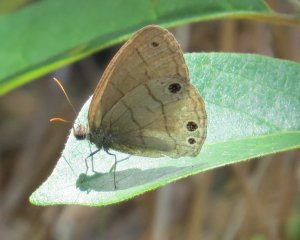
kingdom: Animalia
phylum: Arthropoda
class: Insecta
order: Lepidoptera
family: Nymphalidae
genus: Hermeuptychia
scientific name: Hermeuptychia hermes
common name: Carolina Satyr
